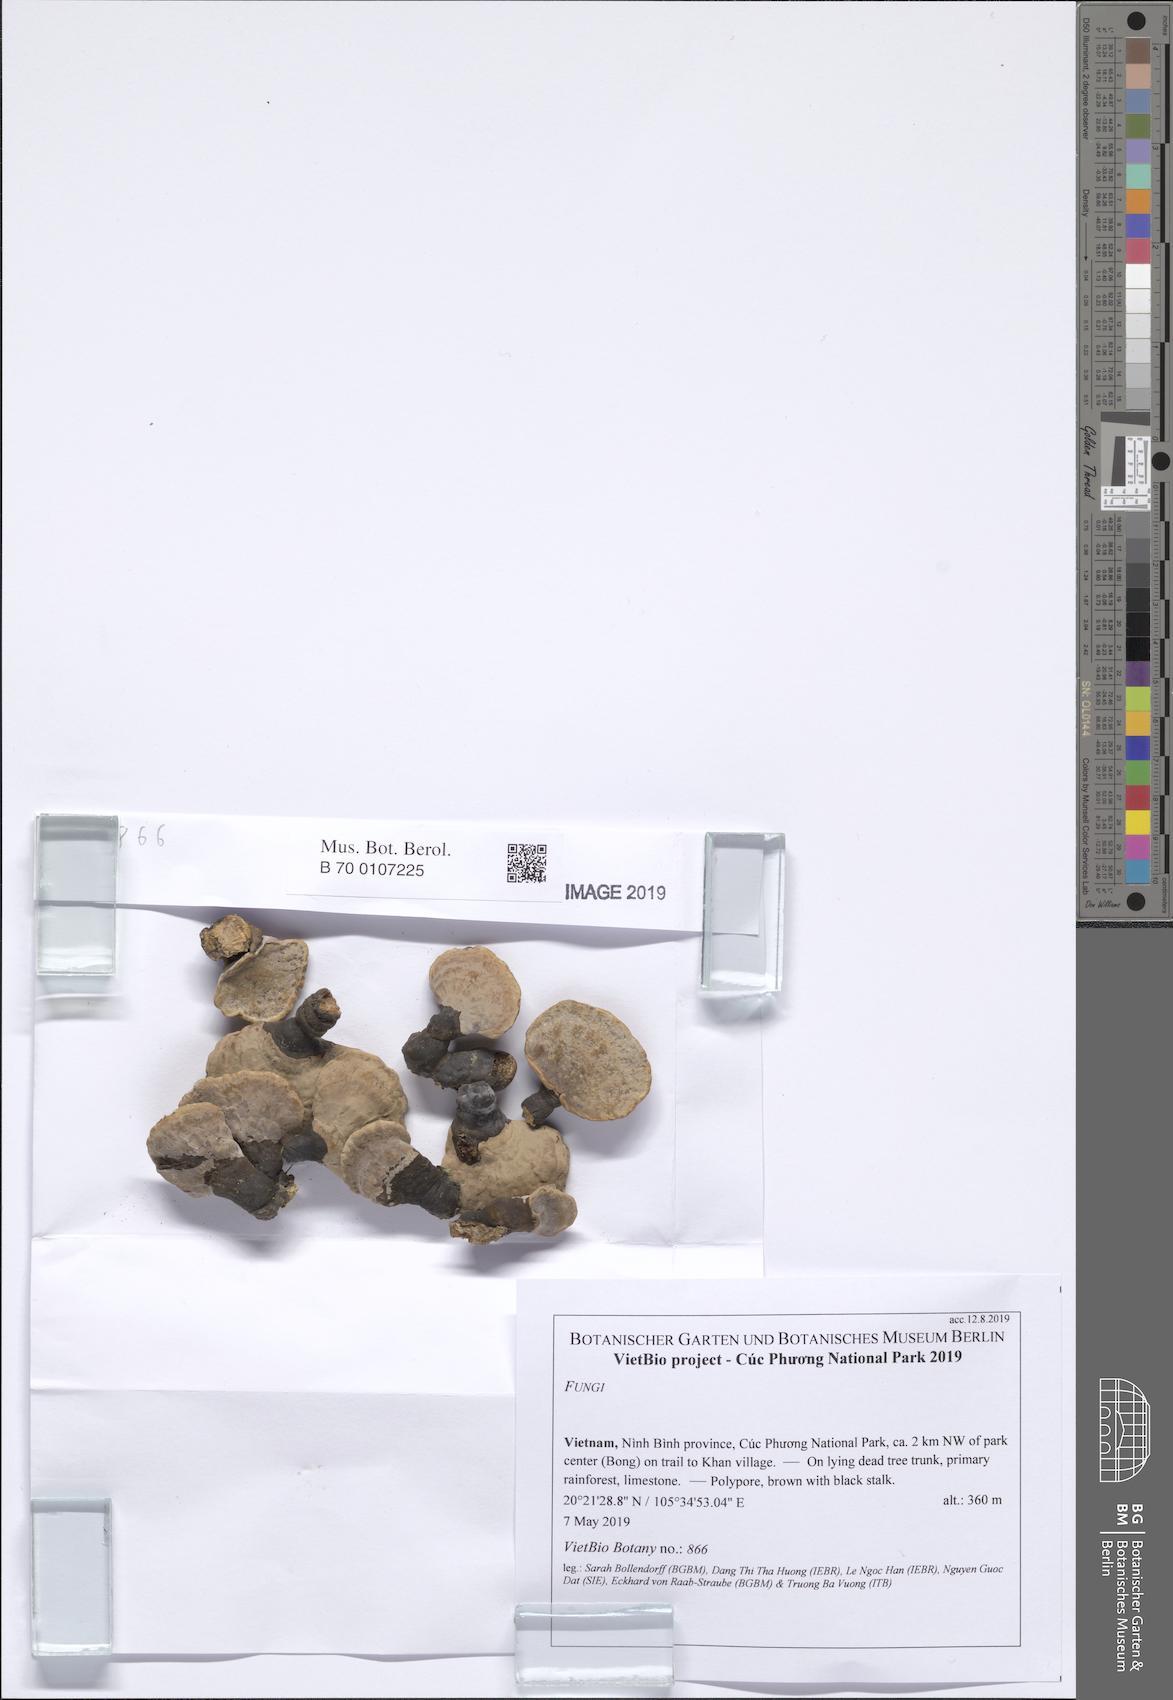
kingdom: Fungi
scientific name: Fungi
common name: Fungi
